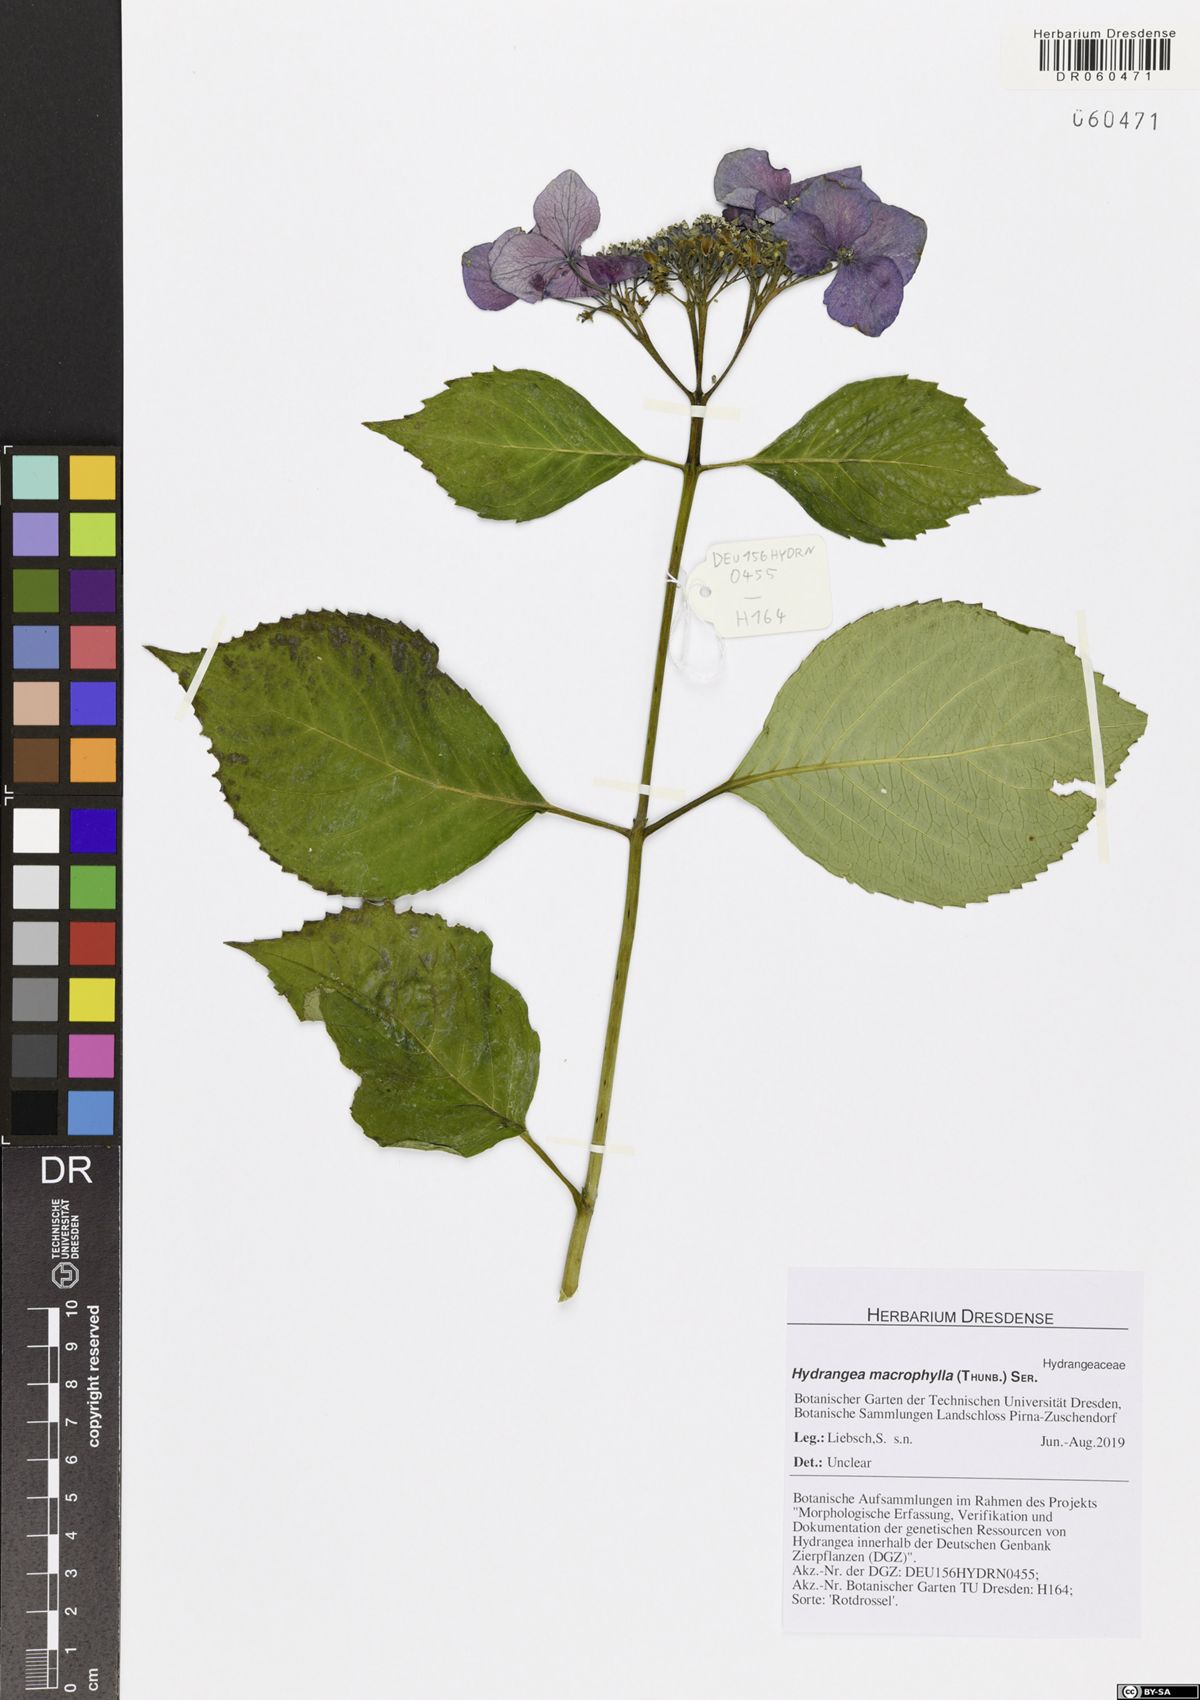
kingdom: Plantae
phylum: Tracheophyta
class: Magnoliopsida
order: Cornales
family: Hydrangeaceae
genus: Hydrangea
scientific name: Hydrangea macrophylla
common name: Hydrangea
